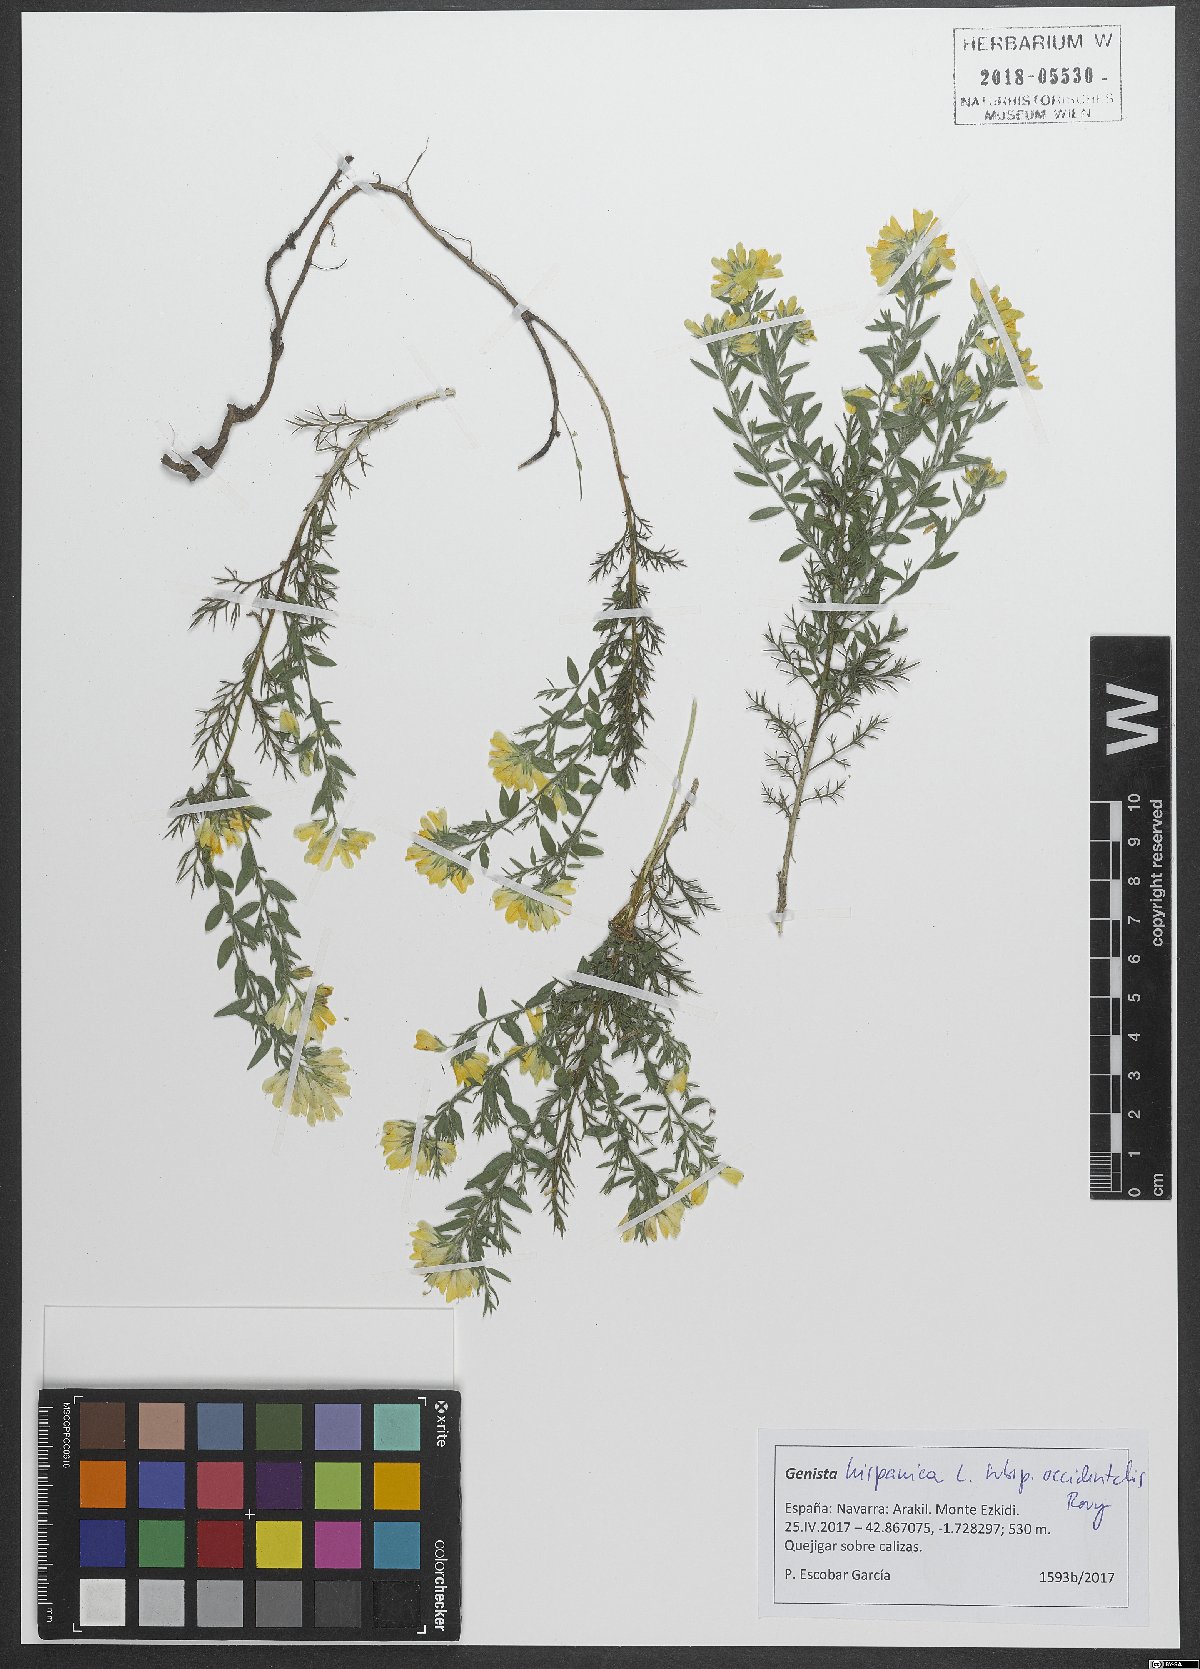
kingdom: Plantae
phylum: Tracheophyta
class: Magnoliopsida
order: Fabales
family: Fabaceae
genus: Genista
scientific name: Genista hispanica
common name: Spanish gorse
